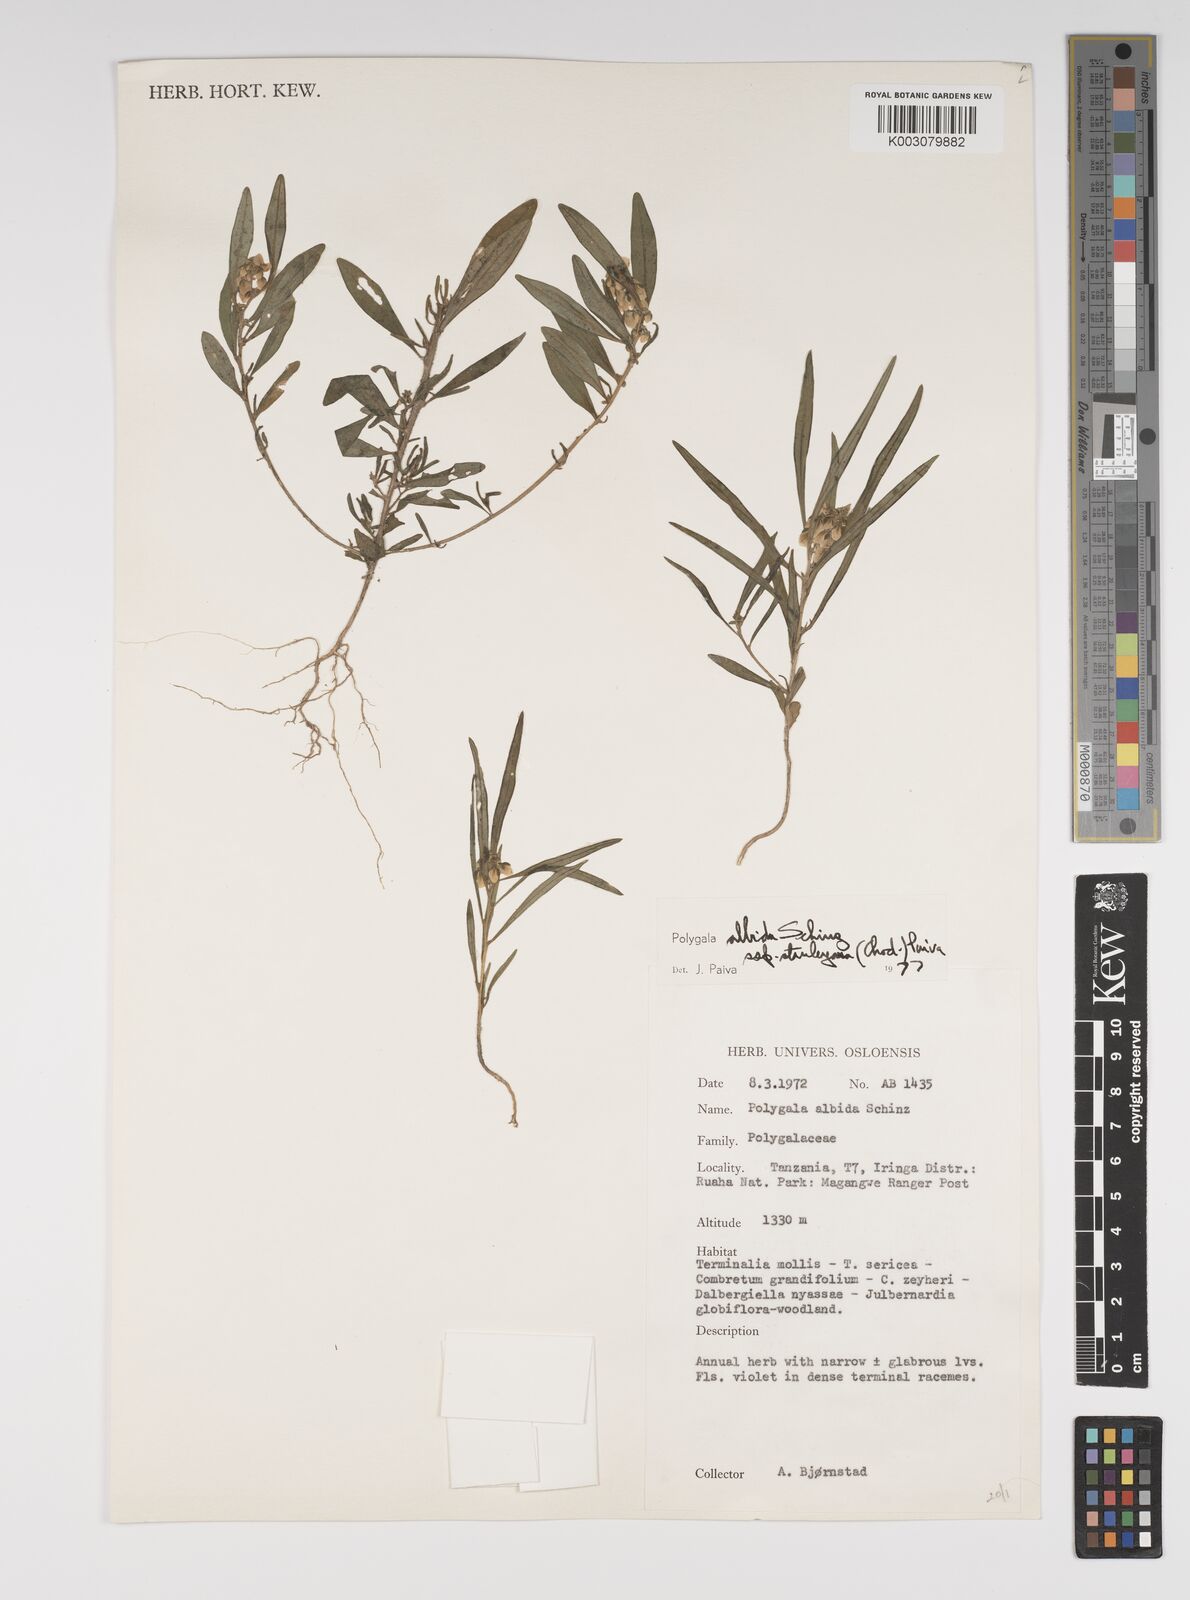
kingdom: Plantae
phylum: Tracheophyta
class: Magnoliopsida
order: Fabales
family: Polygalaceae
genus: Polygala
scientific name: Polygala albida
